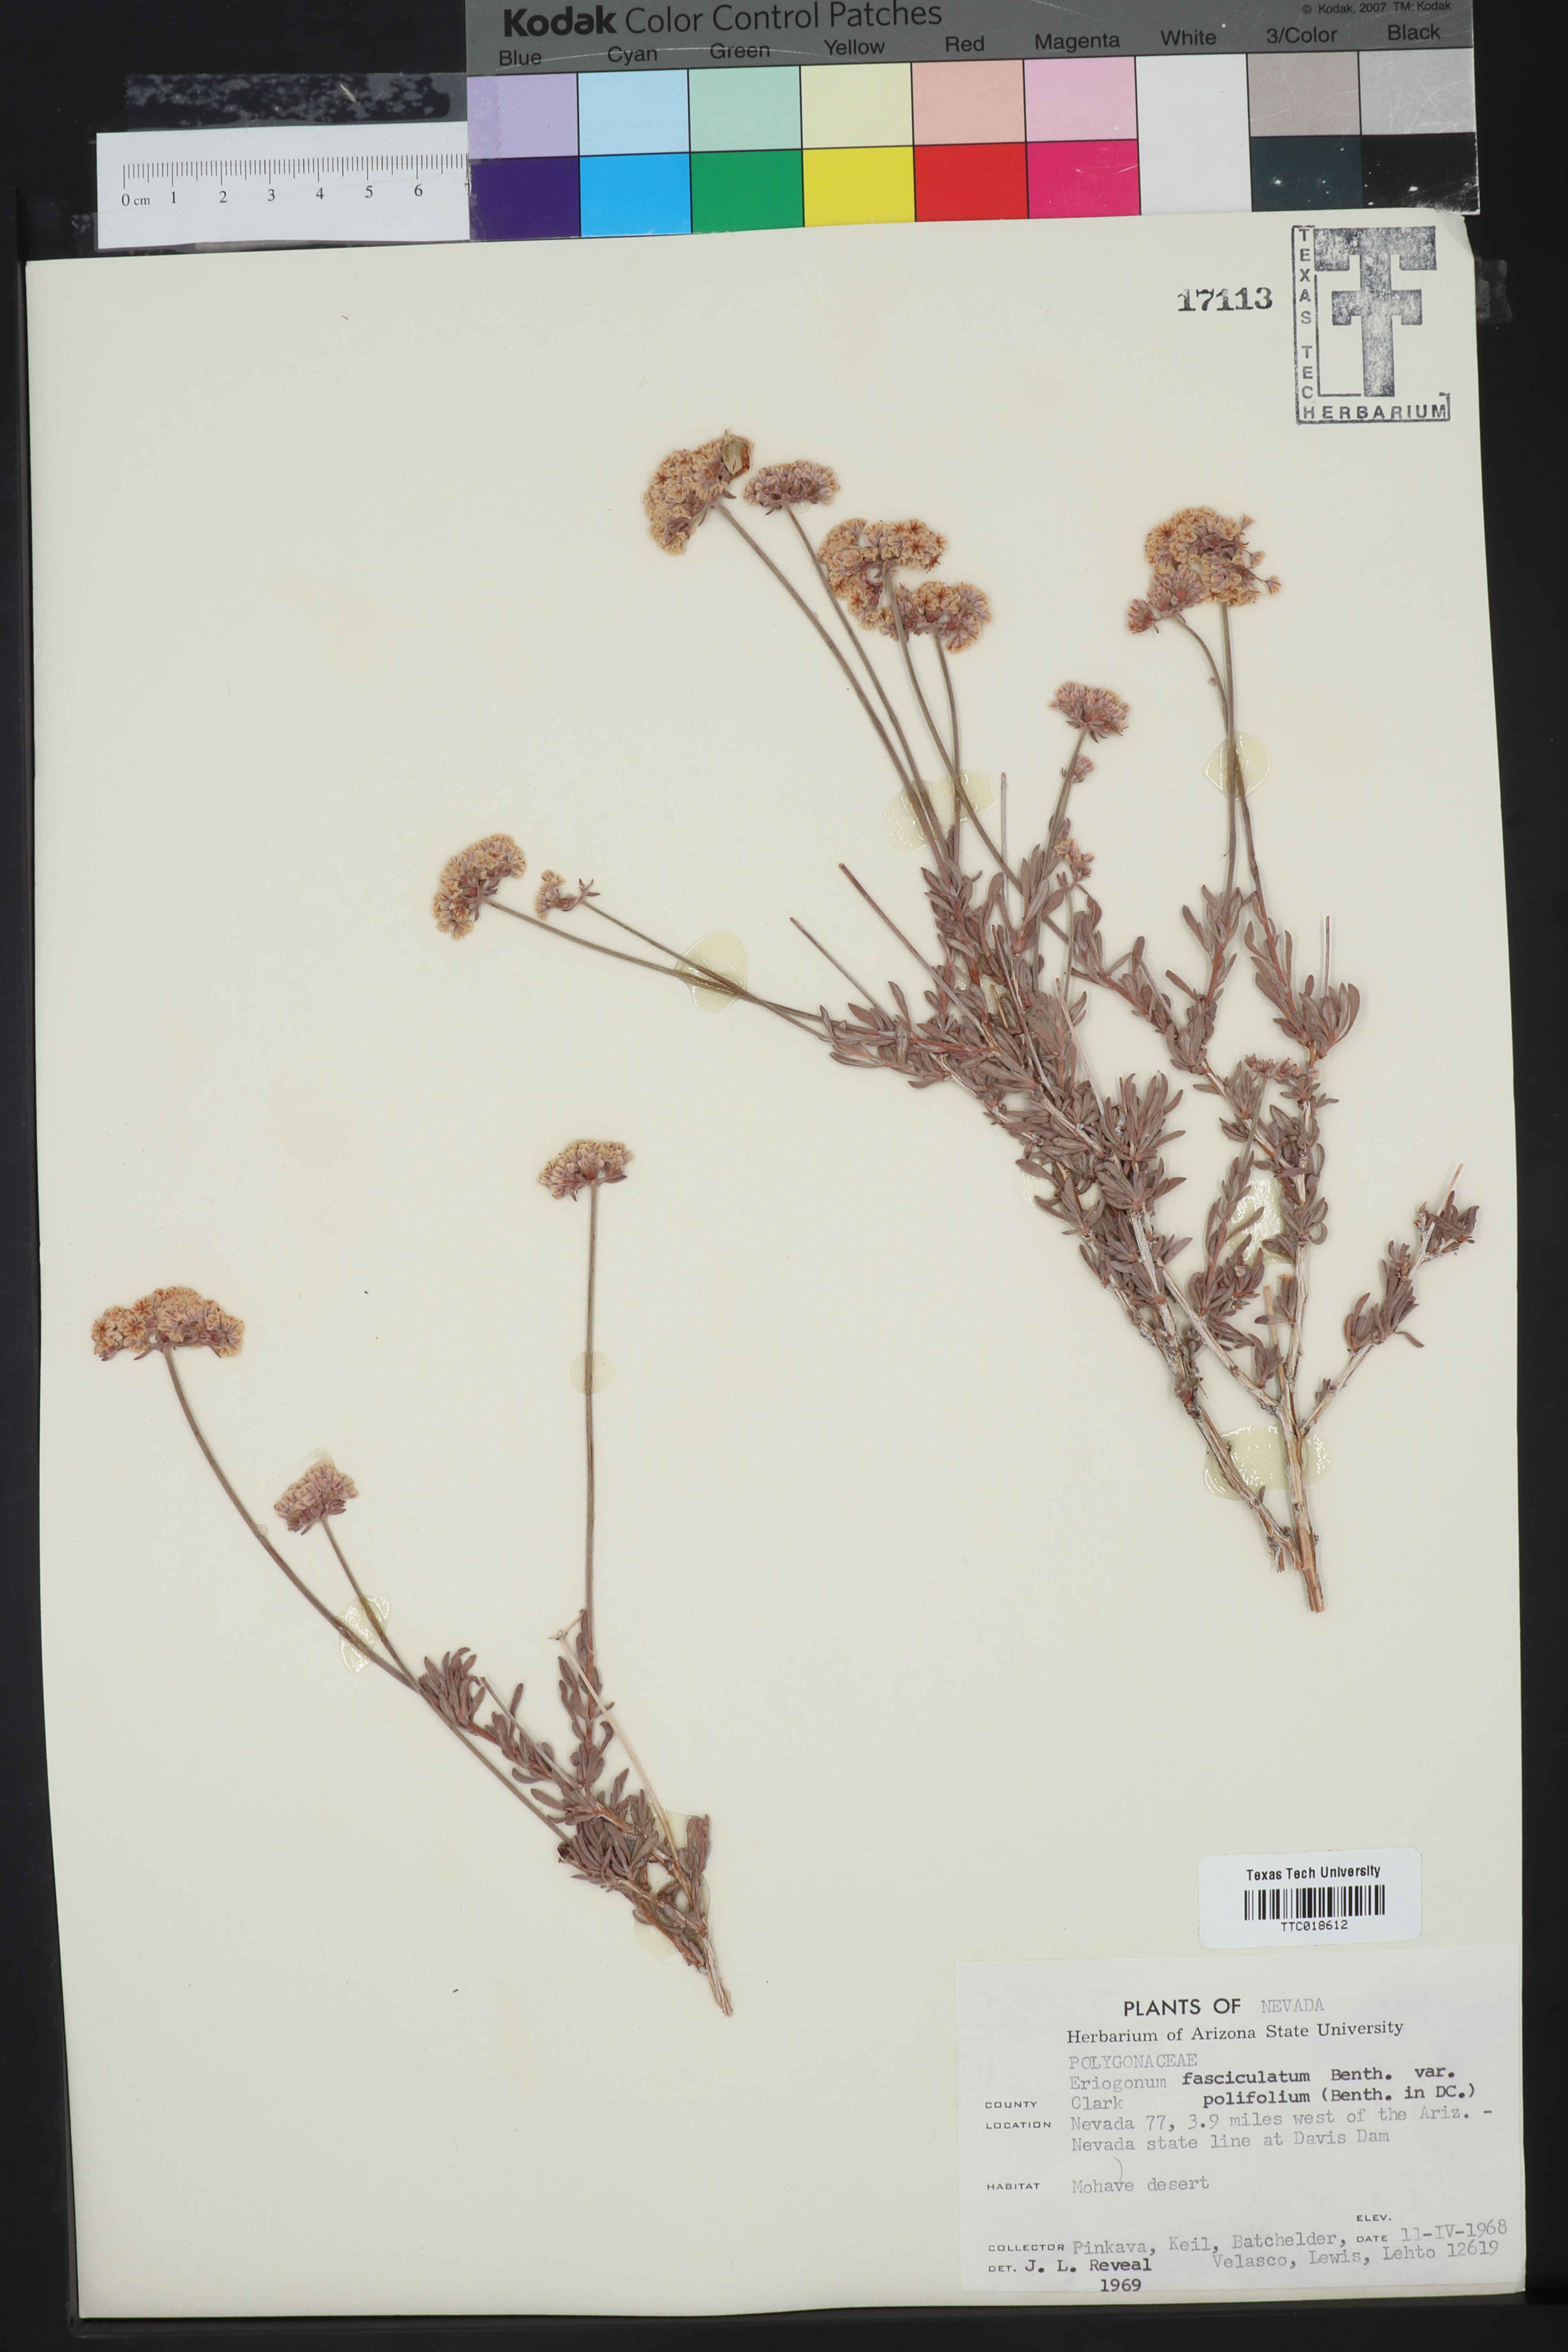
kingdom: Plantae
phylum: Tracheophyta
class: Magnoliopsida
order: Caryophyllales
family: Polygonaceae
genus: Eriogonum
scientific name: Eriogonum fasciculatum
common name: California wild buckwheat
